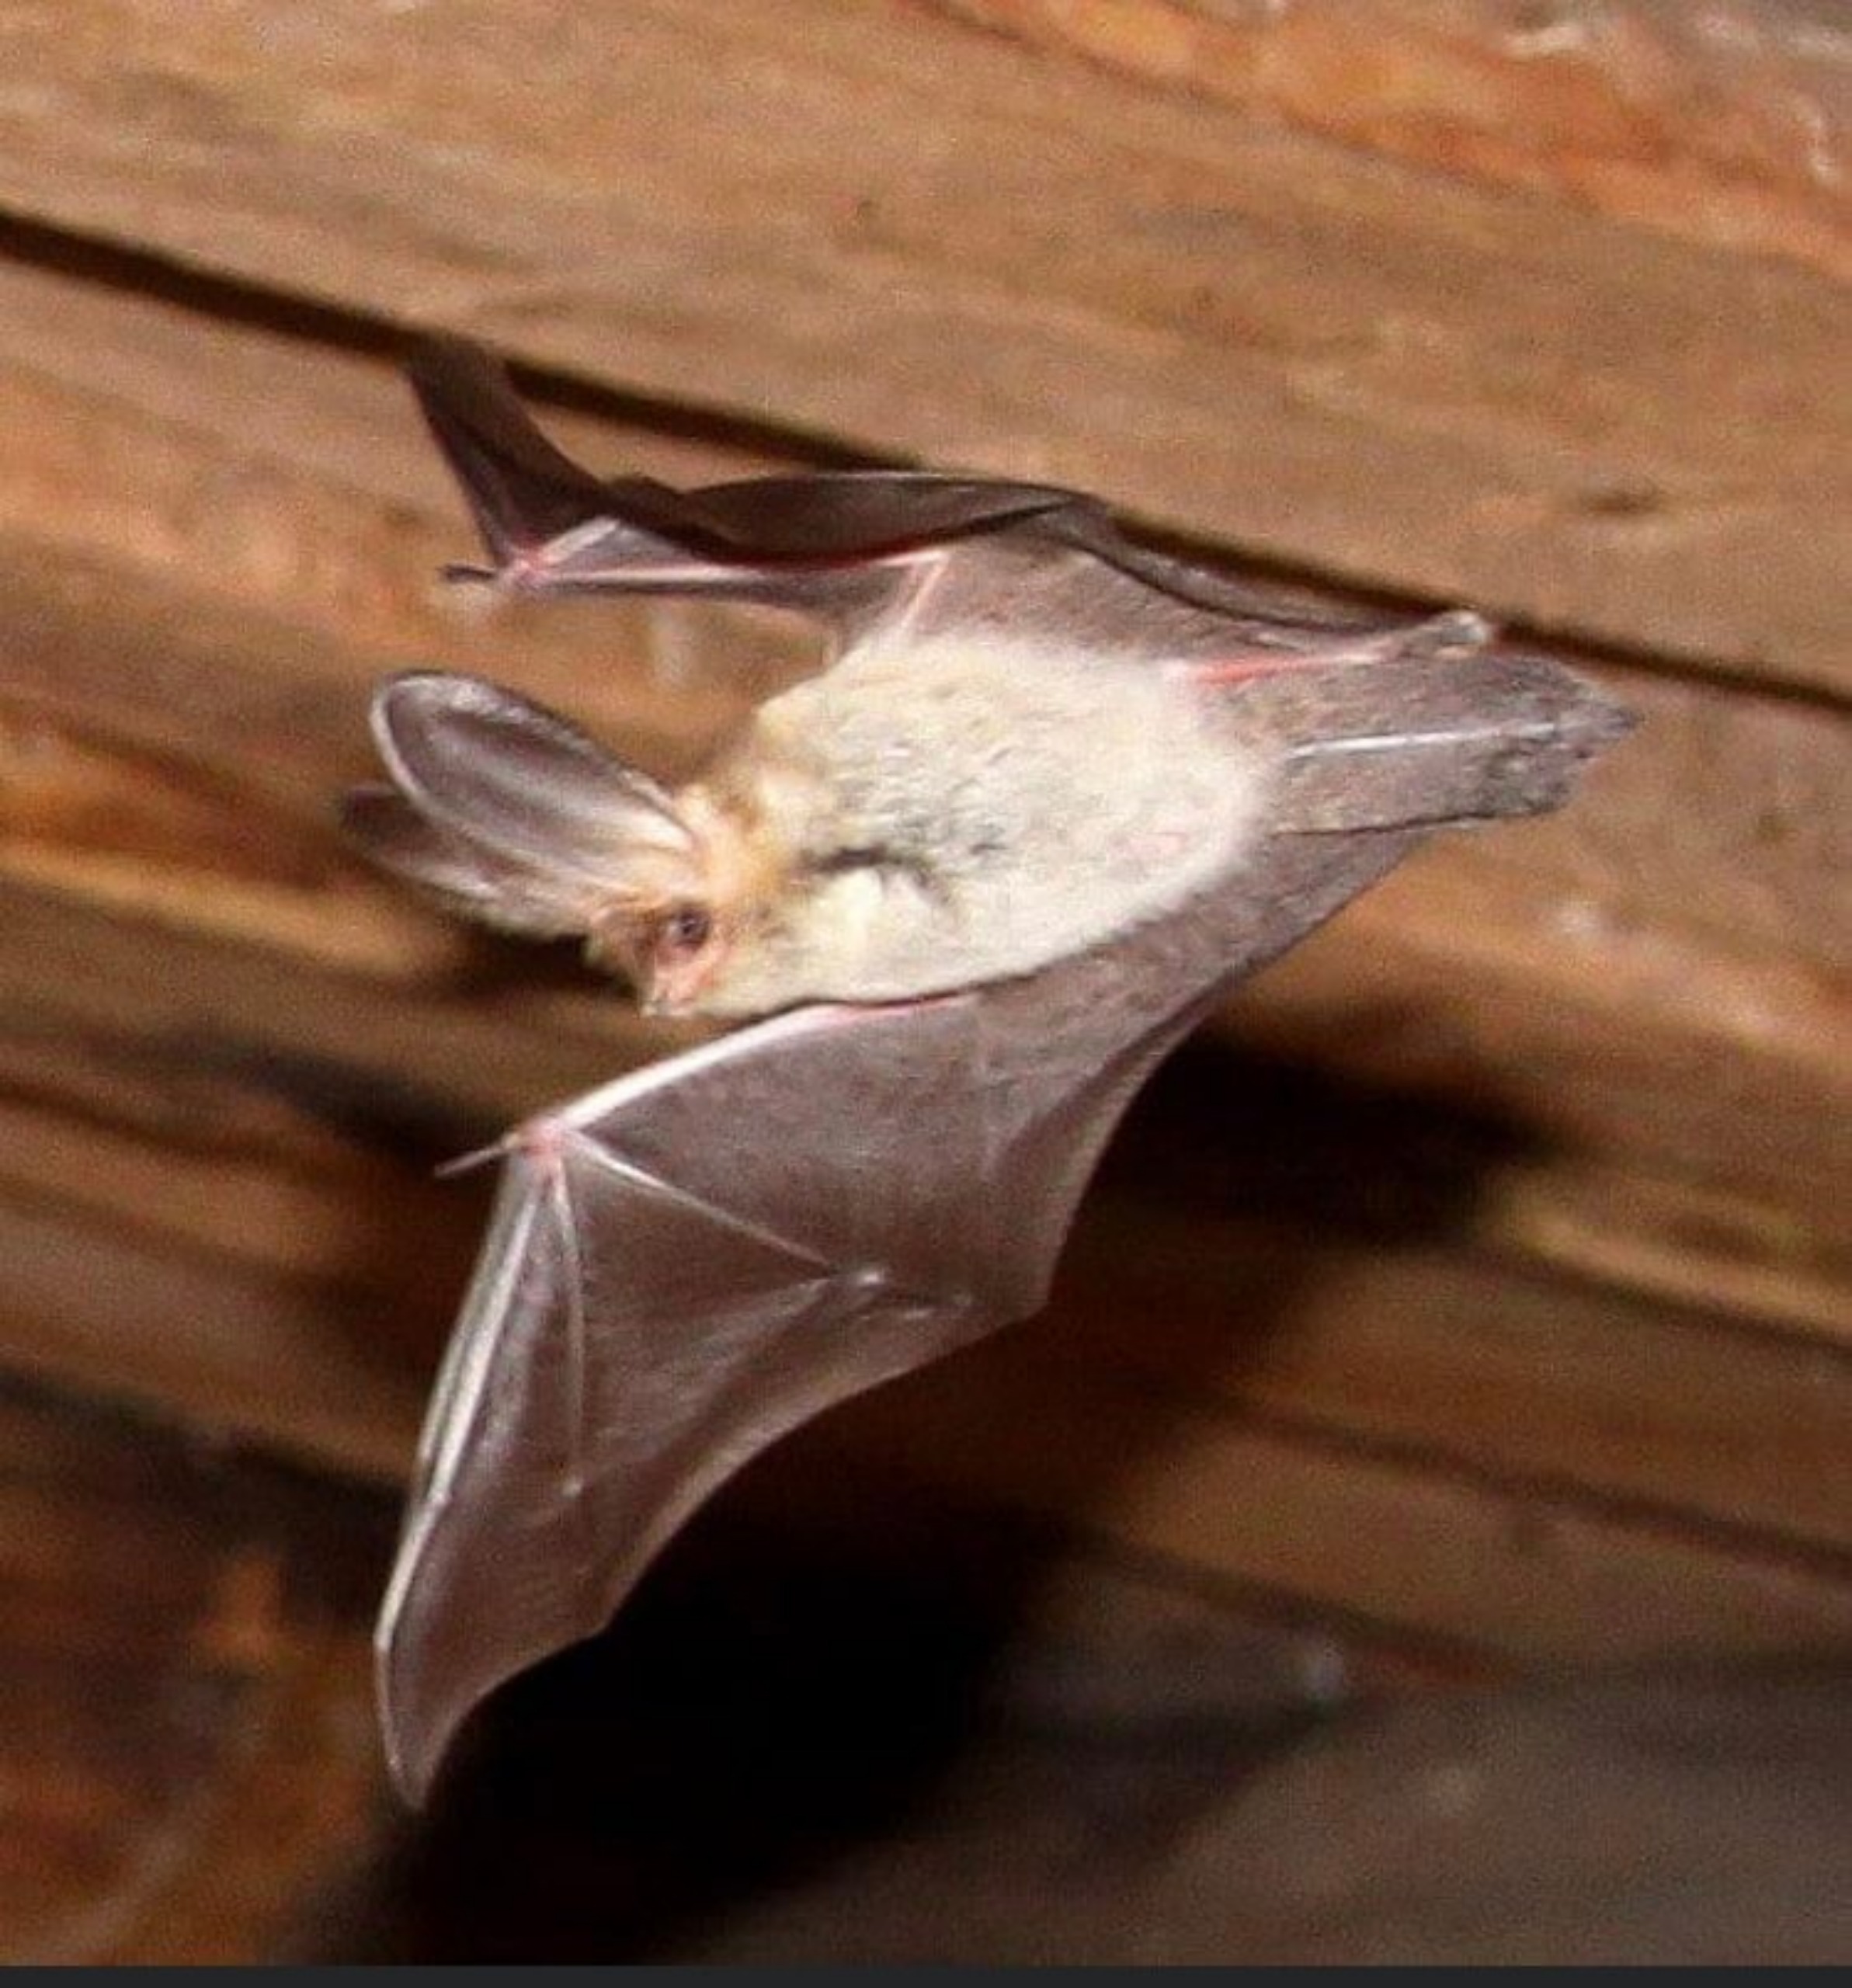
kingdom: Animalia
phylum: Chordata
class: Mammalia
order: Chiroptera
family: Vespertilionidae
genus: Plecotus
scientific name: Plecotus auritus
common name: Brun langøre
